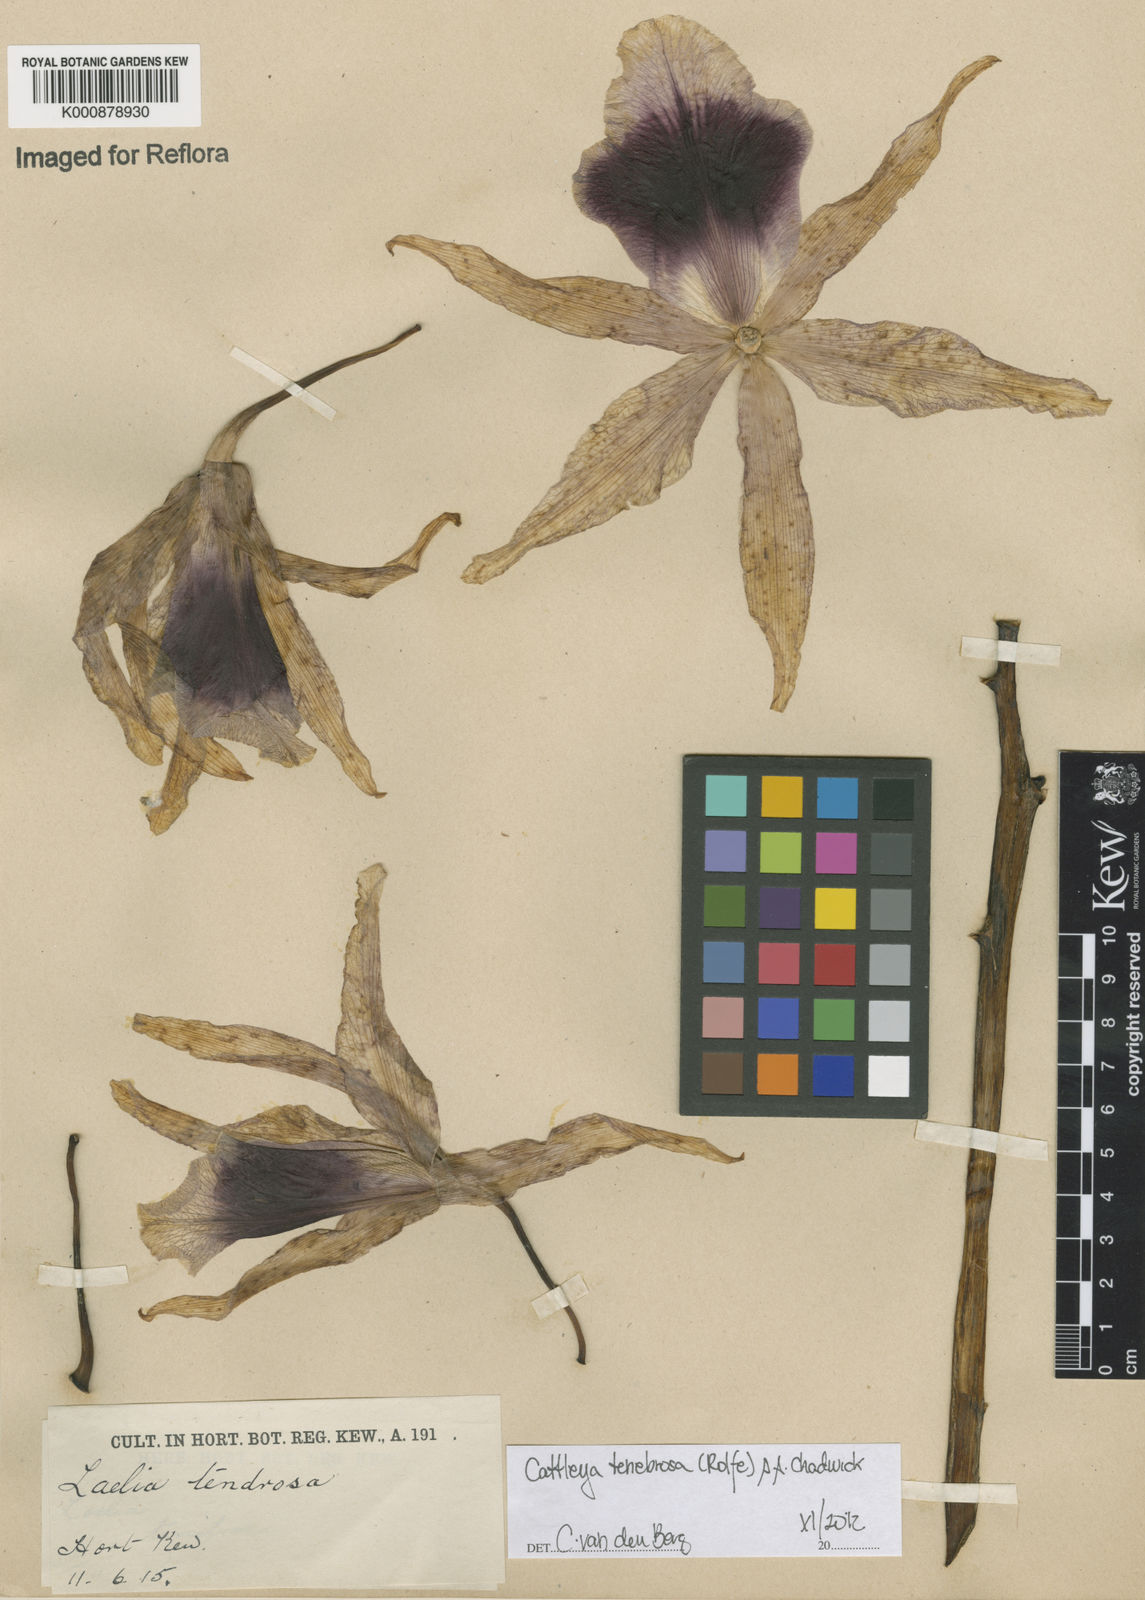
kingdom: Plantae
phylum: Tracheophyta
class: Liliopsida
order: Asparagales
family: Orchidaceae
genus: Cattleya
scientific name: Cattleya tenebrosa
